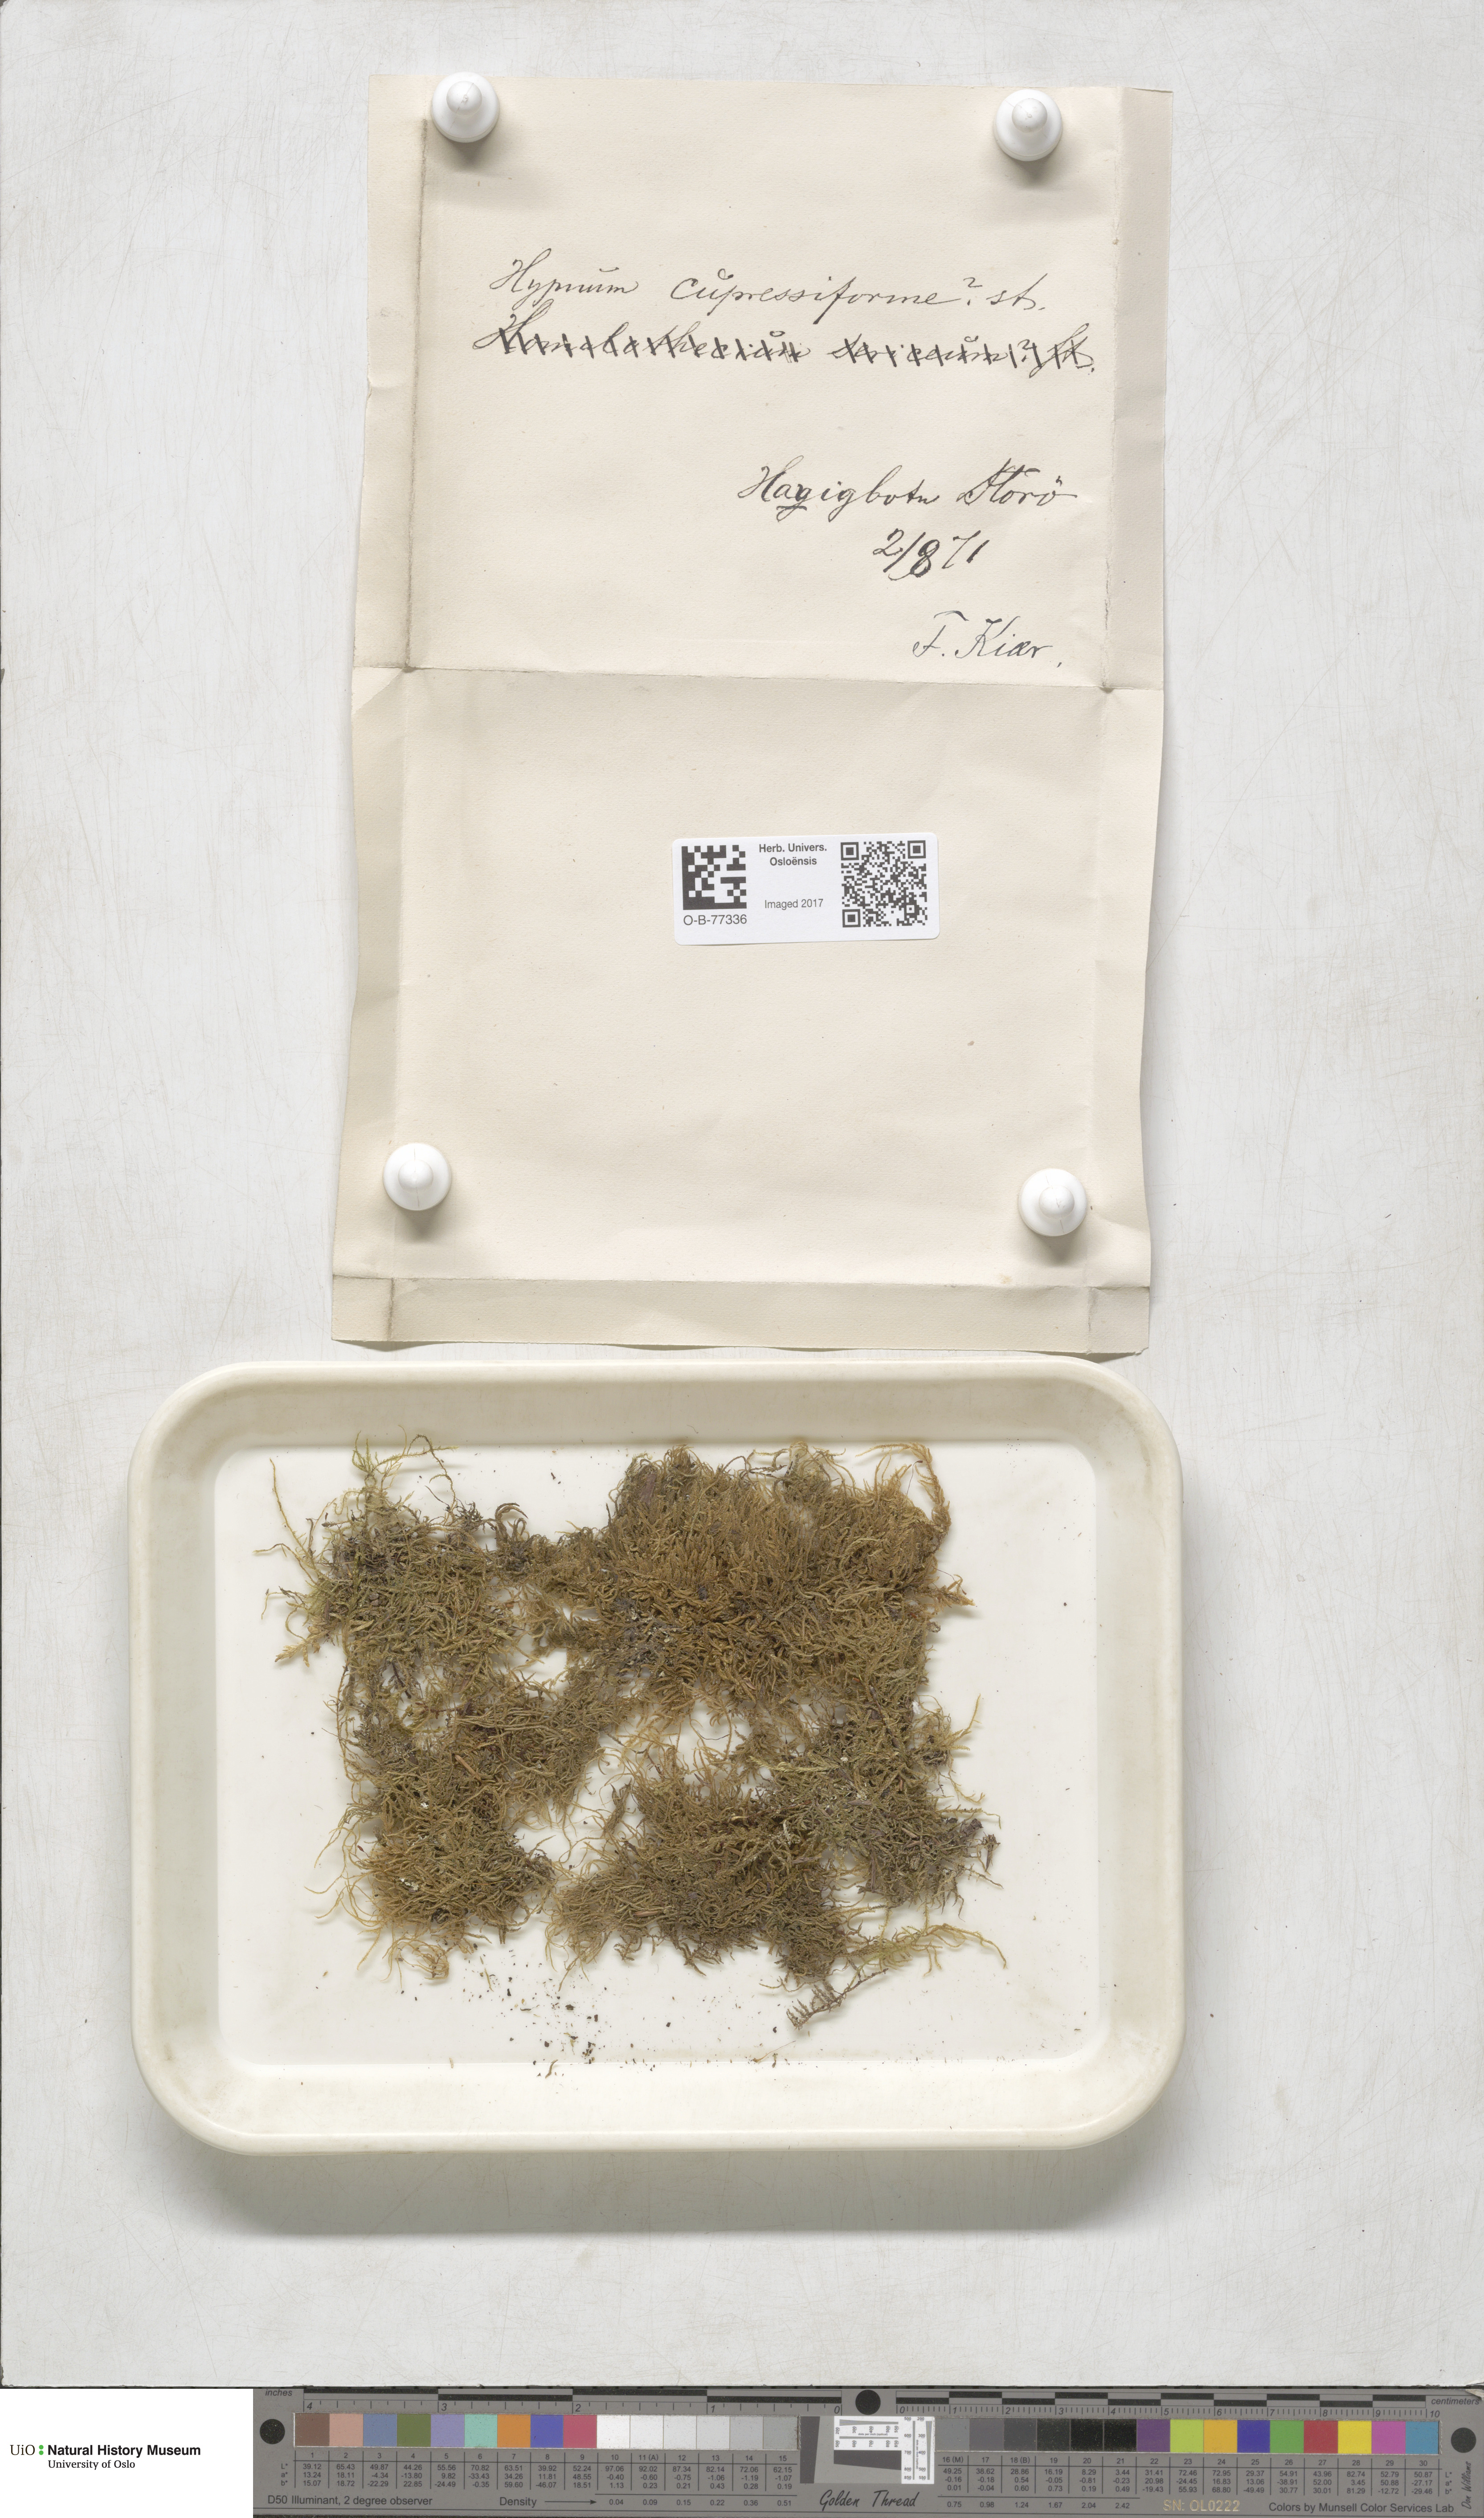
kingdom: Plantae
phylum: Bryophyta
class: Bryopsida
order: Hypnales
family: Hypnaceae
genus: Hypnum
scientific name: Hypnum cupressiforme
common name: Cypress-leaved plait-moss
